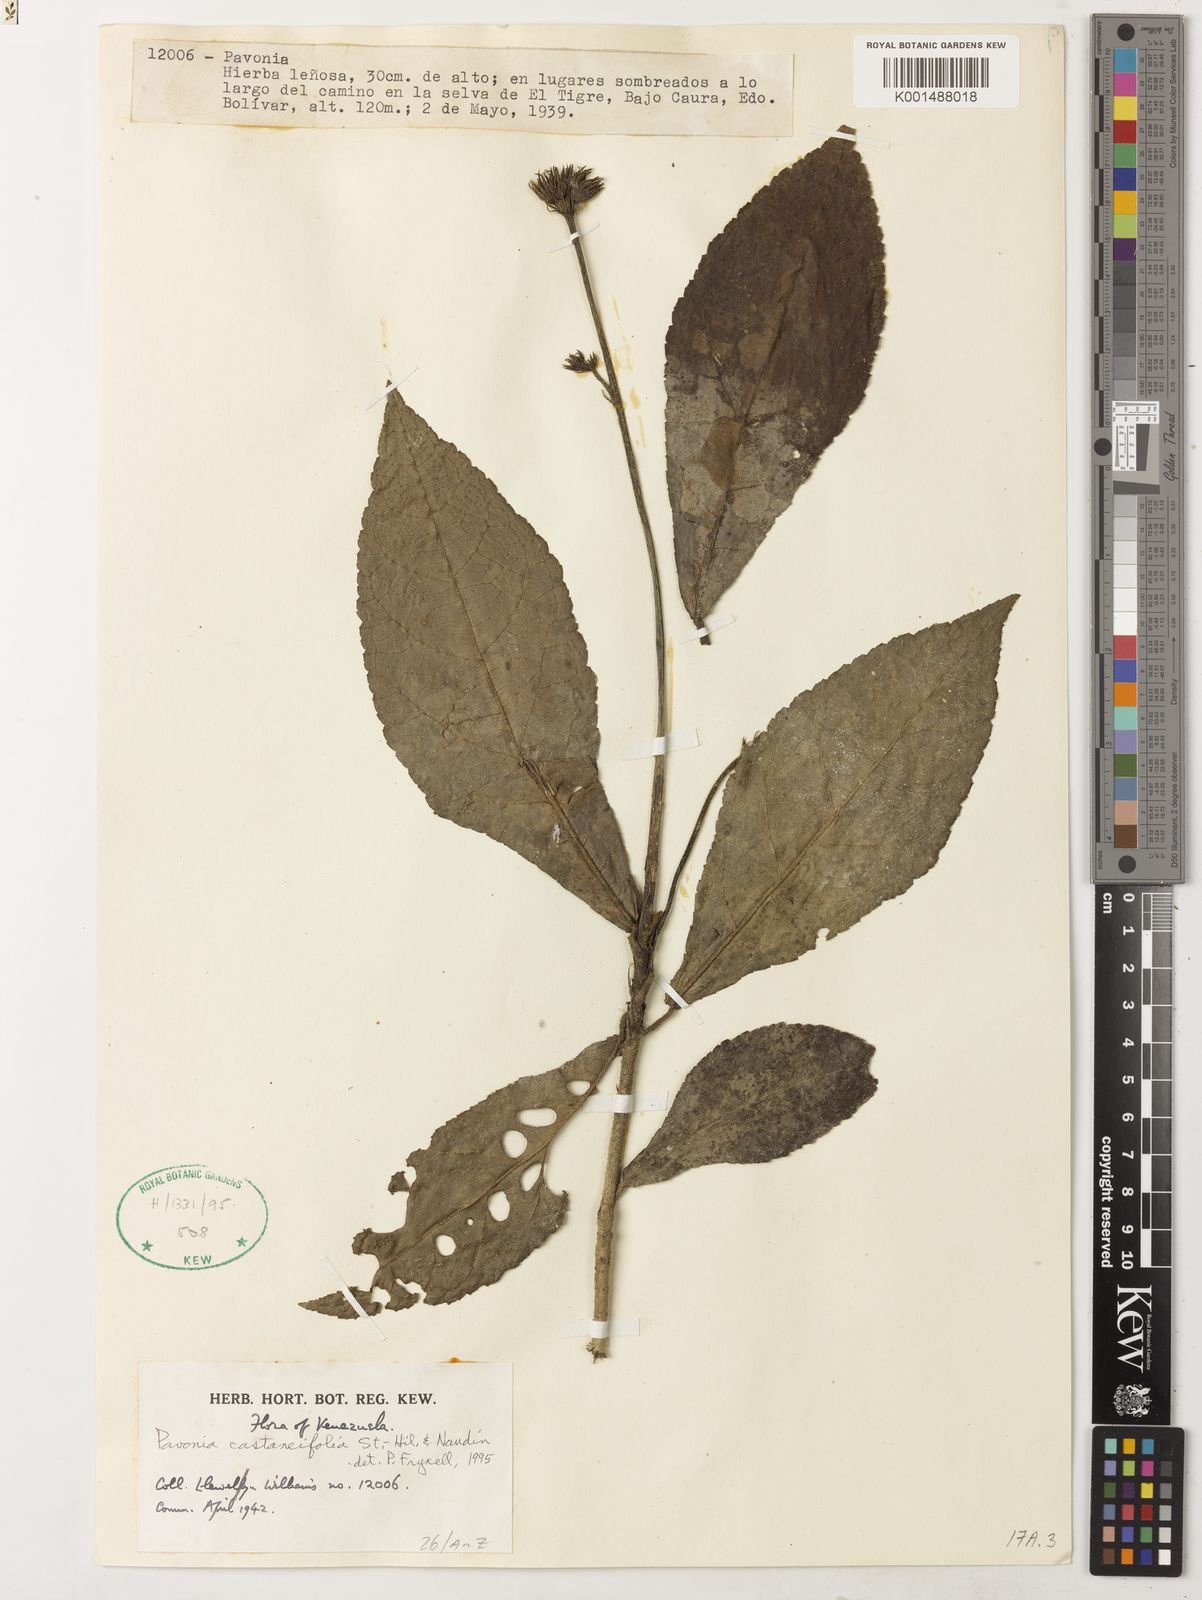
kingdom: Plantae
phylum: Tracheophyta
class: Magnoliopsida
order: Malvales
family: Malvaceae
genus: Pavonia
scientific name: Pavonia castaneifolia
